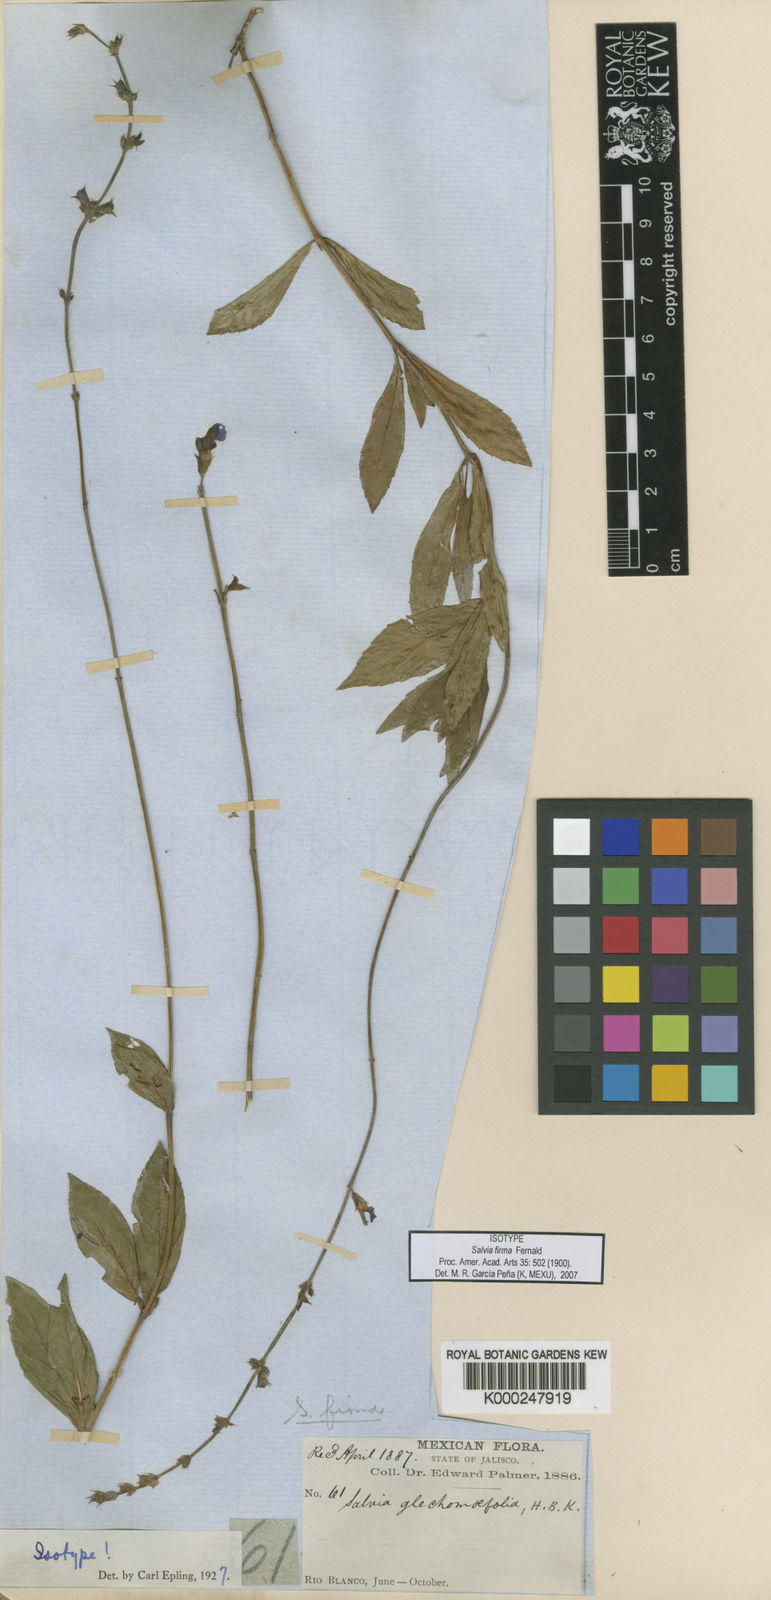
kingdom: Plantae
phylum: Tracheophyta
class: Magnoliopsida
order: Lamiales
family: Lamiaceae
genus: Salvia
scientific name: Salvia firma
